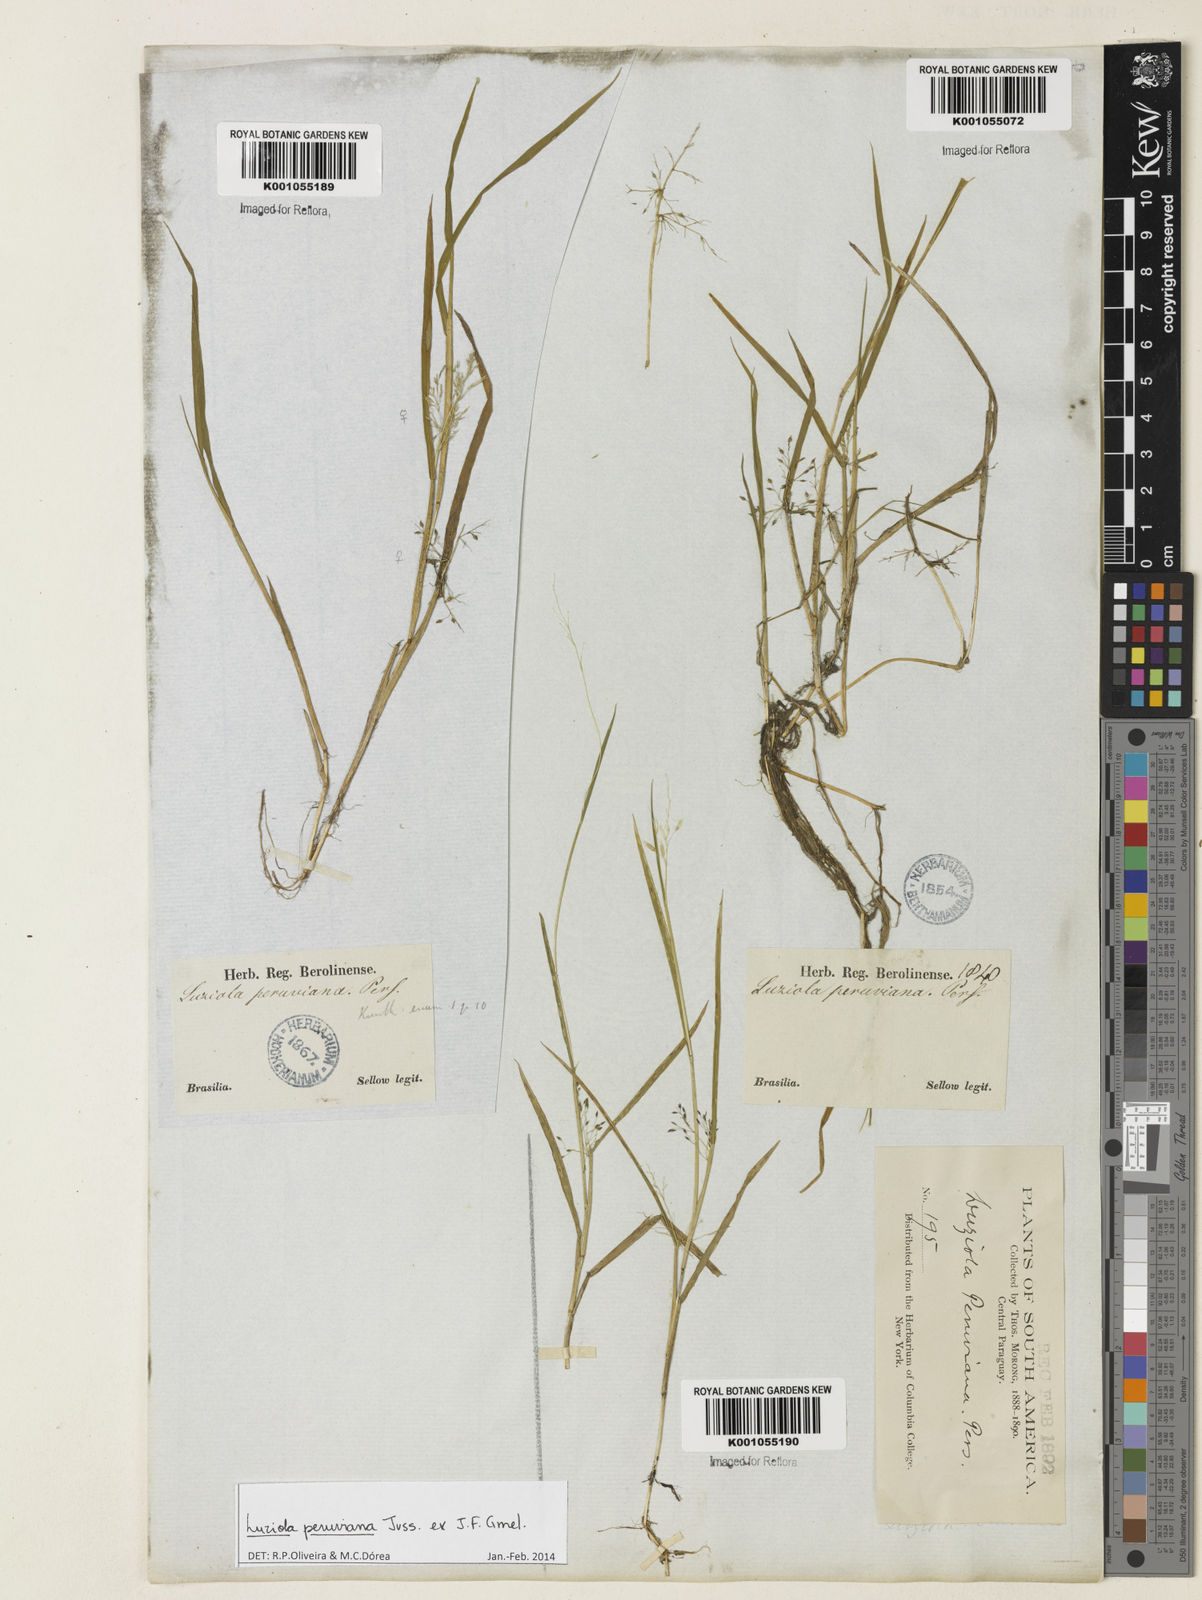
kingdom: Plantae
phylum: Tracheophyta
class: Liliopsida
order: Poales
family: Poaceae
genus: Luziola
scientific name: Luziola peruviana
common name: Peruvian watergrass
